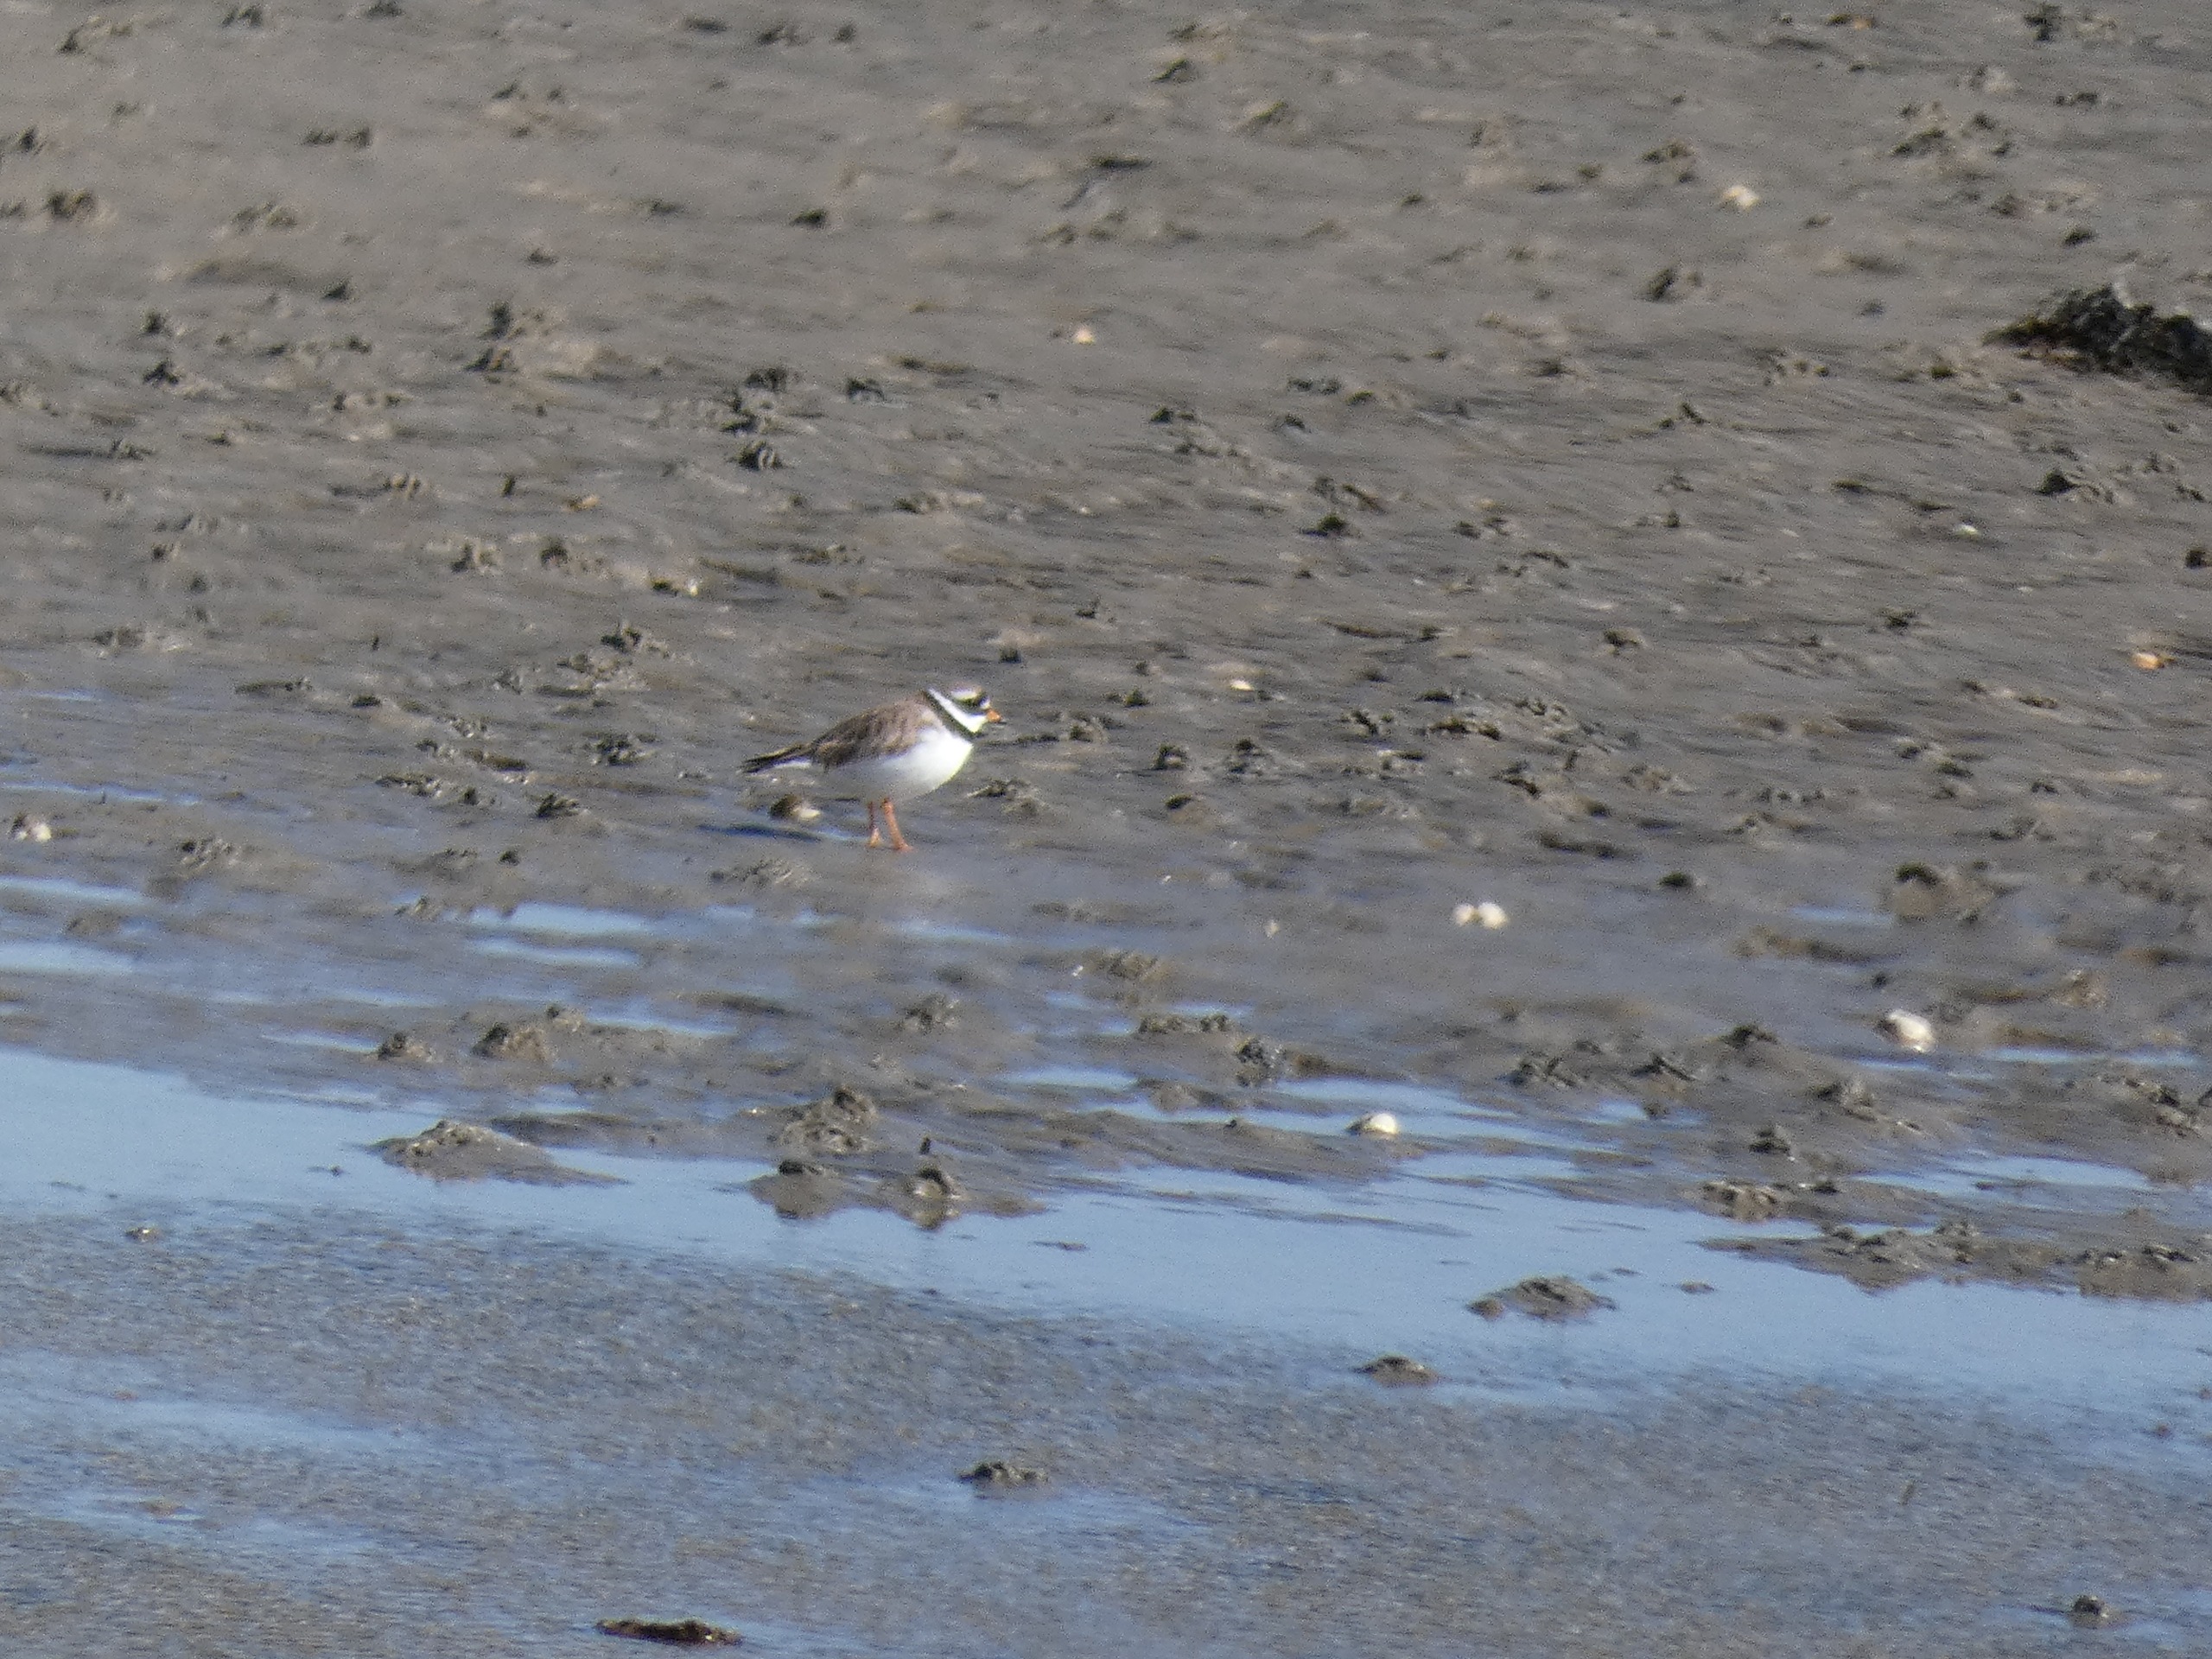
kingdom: Animalia
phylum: Chordata
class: Aves
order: Charadriiformes
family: Charadriidae
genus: Charadrius
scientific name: Charadrius hiaticula
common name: Stor præstekrave
